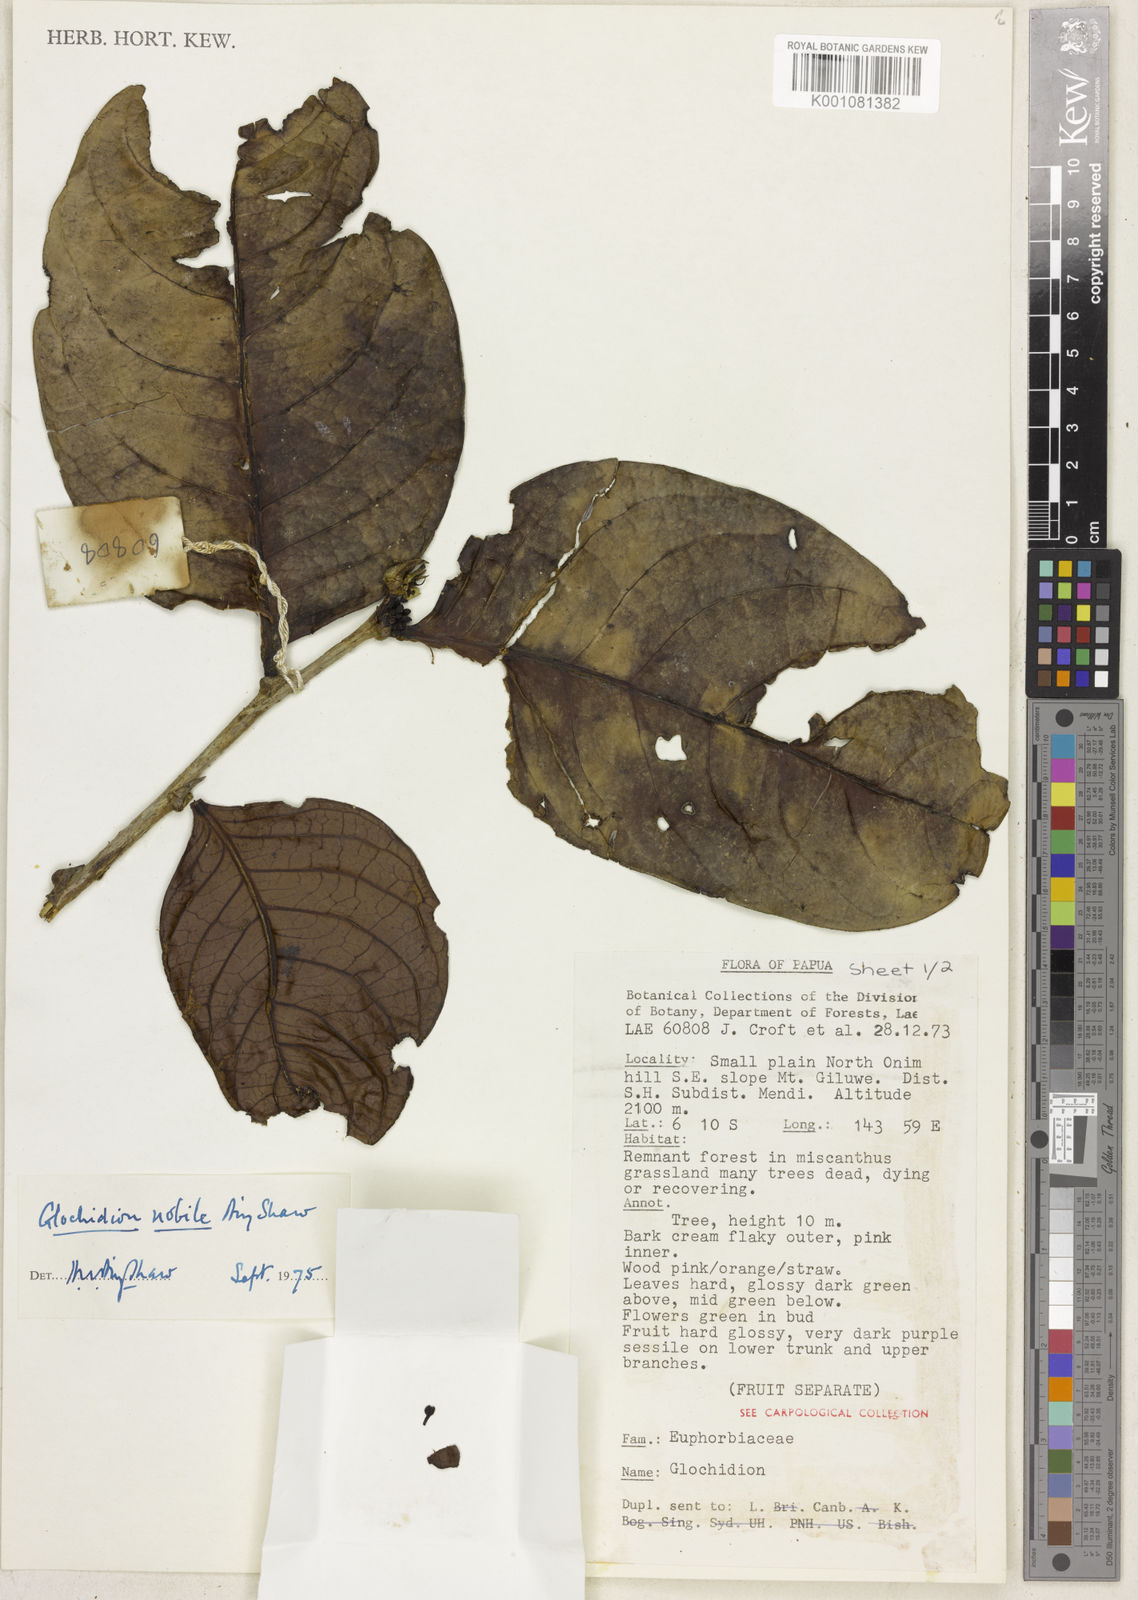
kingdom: Plantae
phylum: Tracheophyta
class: Magnoliopsida
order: Malpighiales
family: Phyllanthaceae
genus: Glochidion
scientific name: Glochidion nobile
